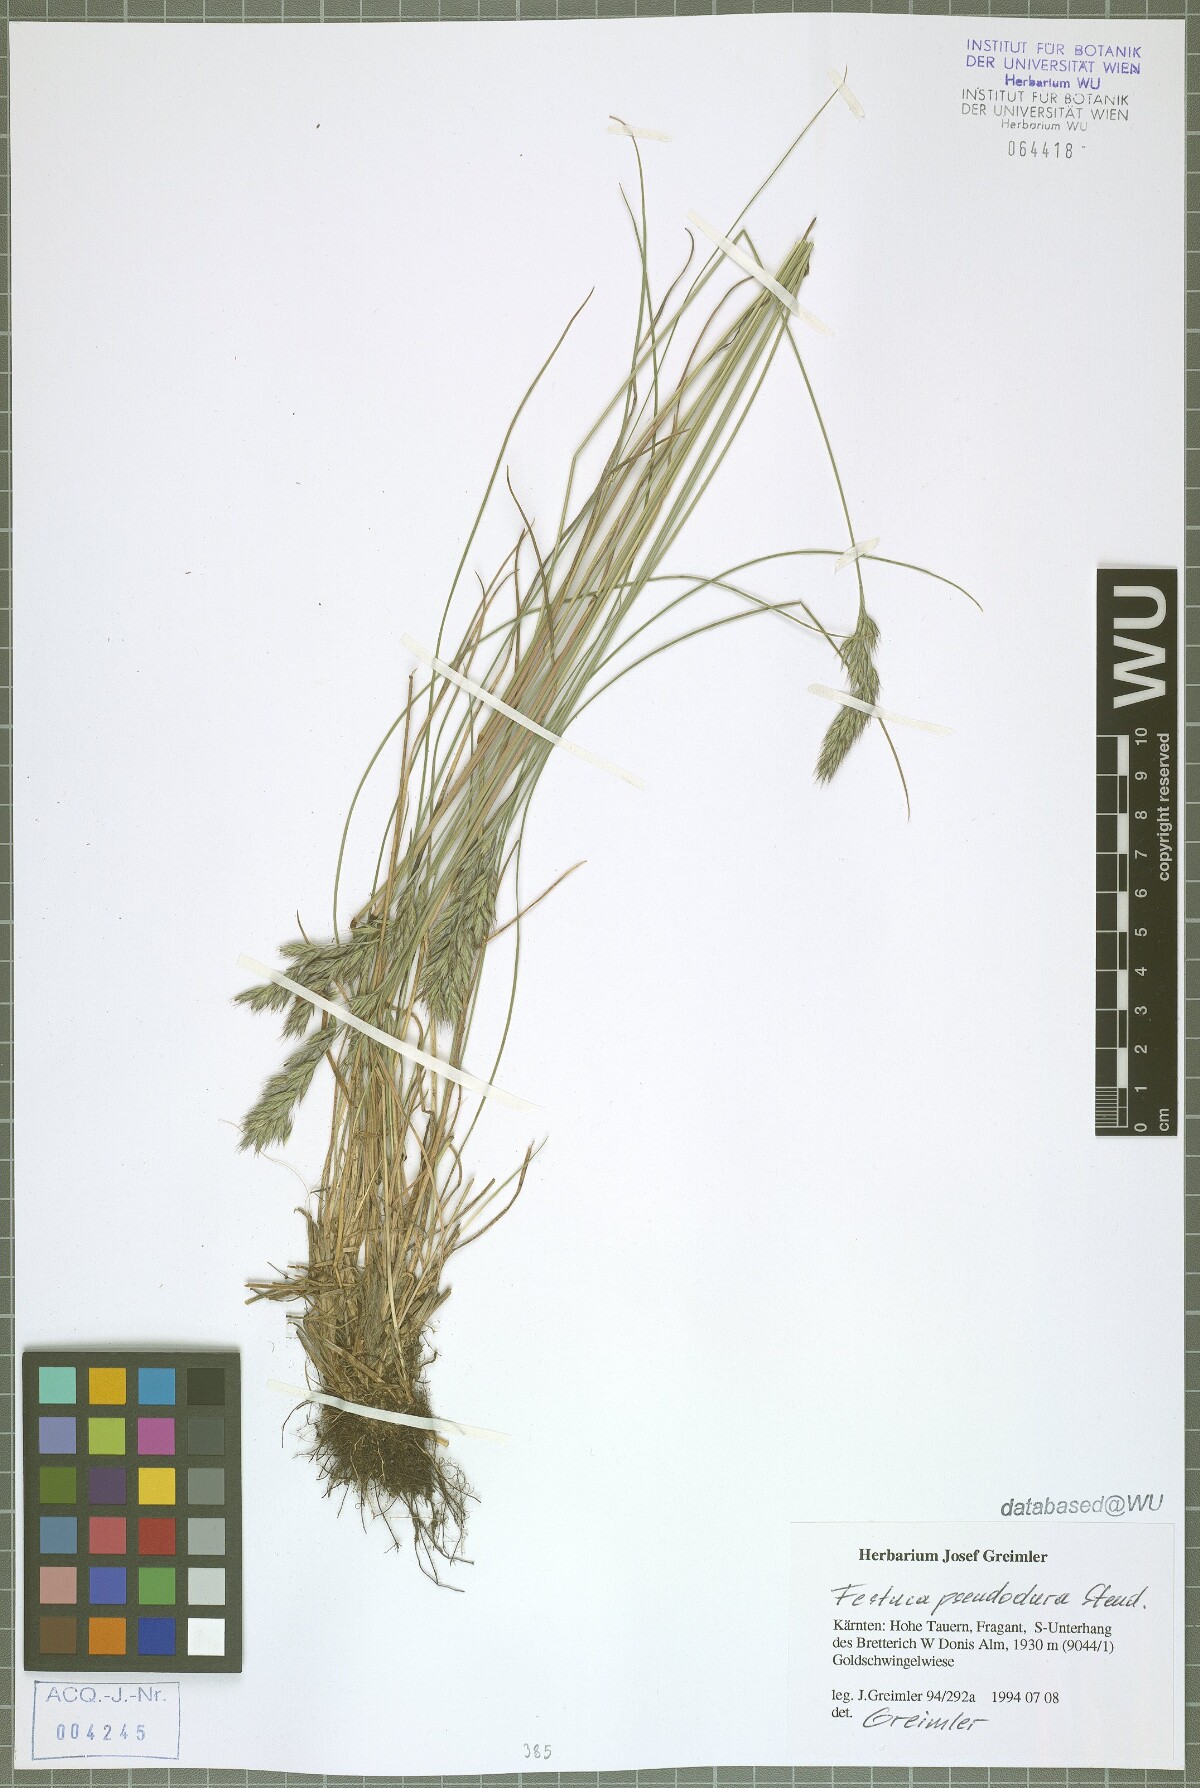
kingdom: Plantae
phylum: Tracheophyta
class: Liliopsida
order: Poales
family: Poaceae
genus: Festuca
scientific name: Festuca pseudodura
